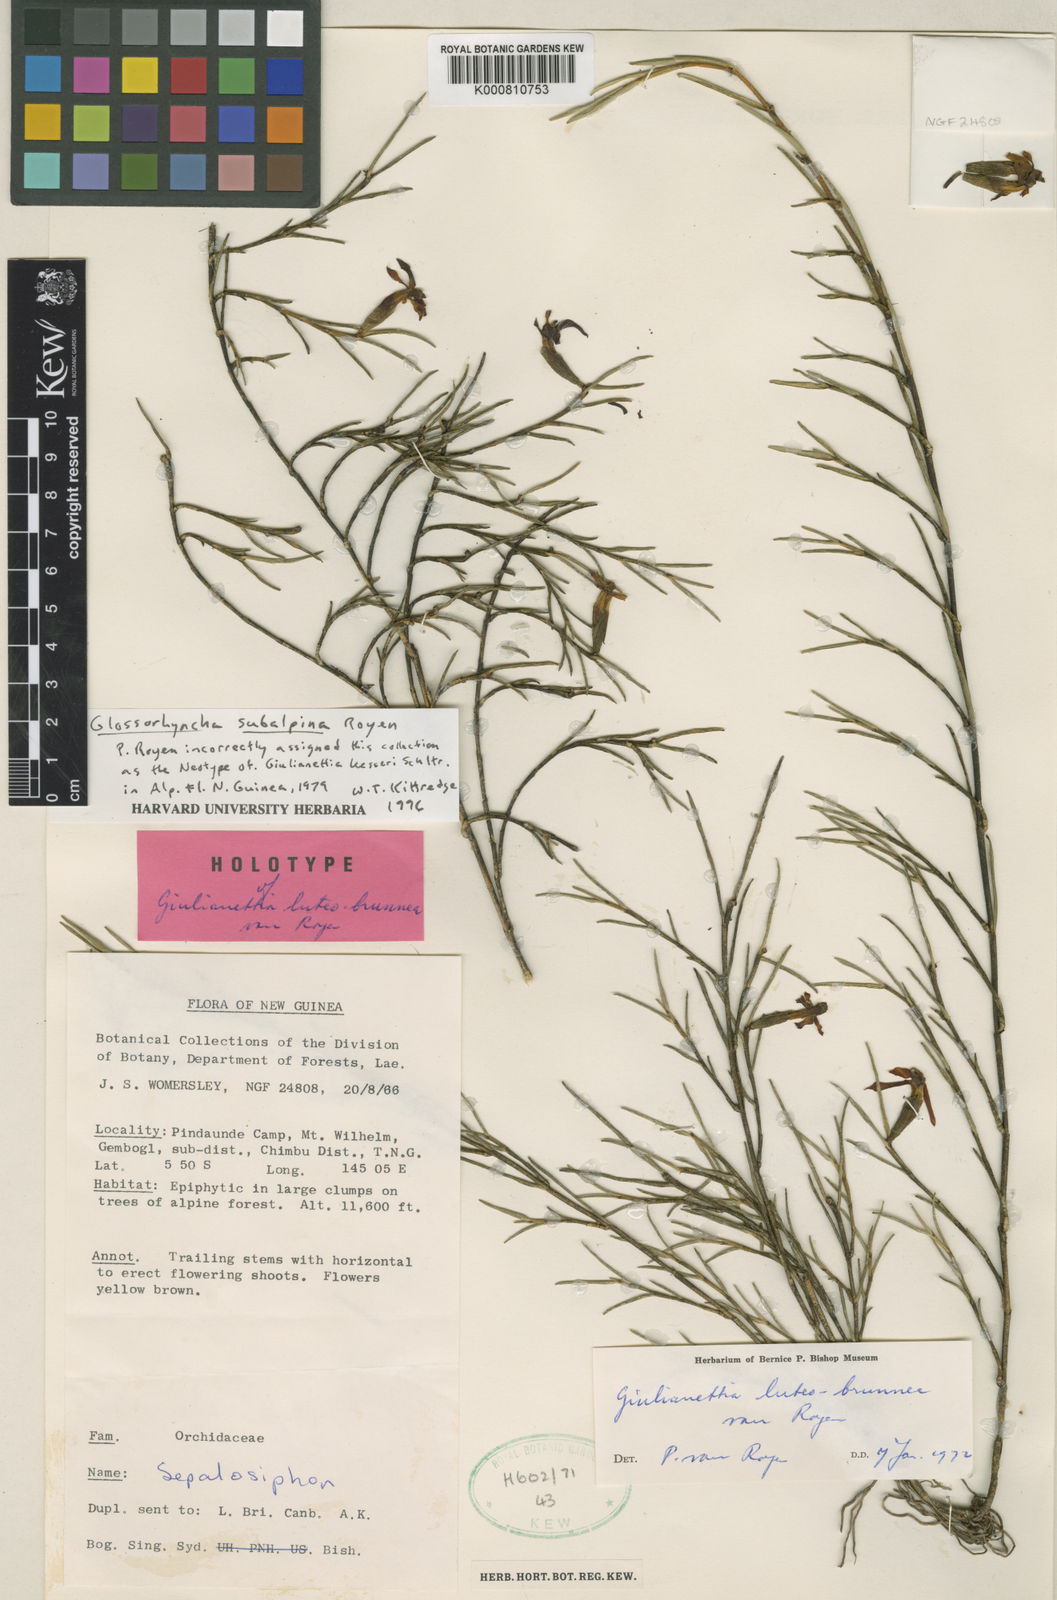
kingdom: Plantae
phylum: Tracheophyta
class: Liliopsida
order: Asparagales
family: Orchidaceae
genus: Glomera
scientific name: Glomera subnivalis
